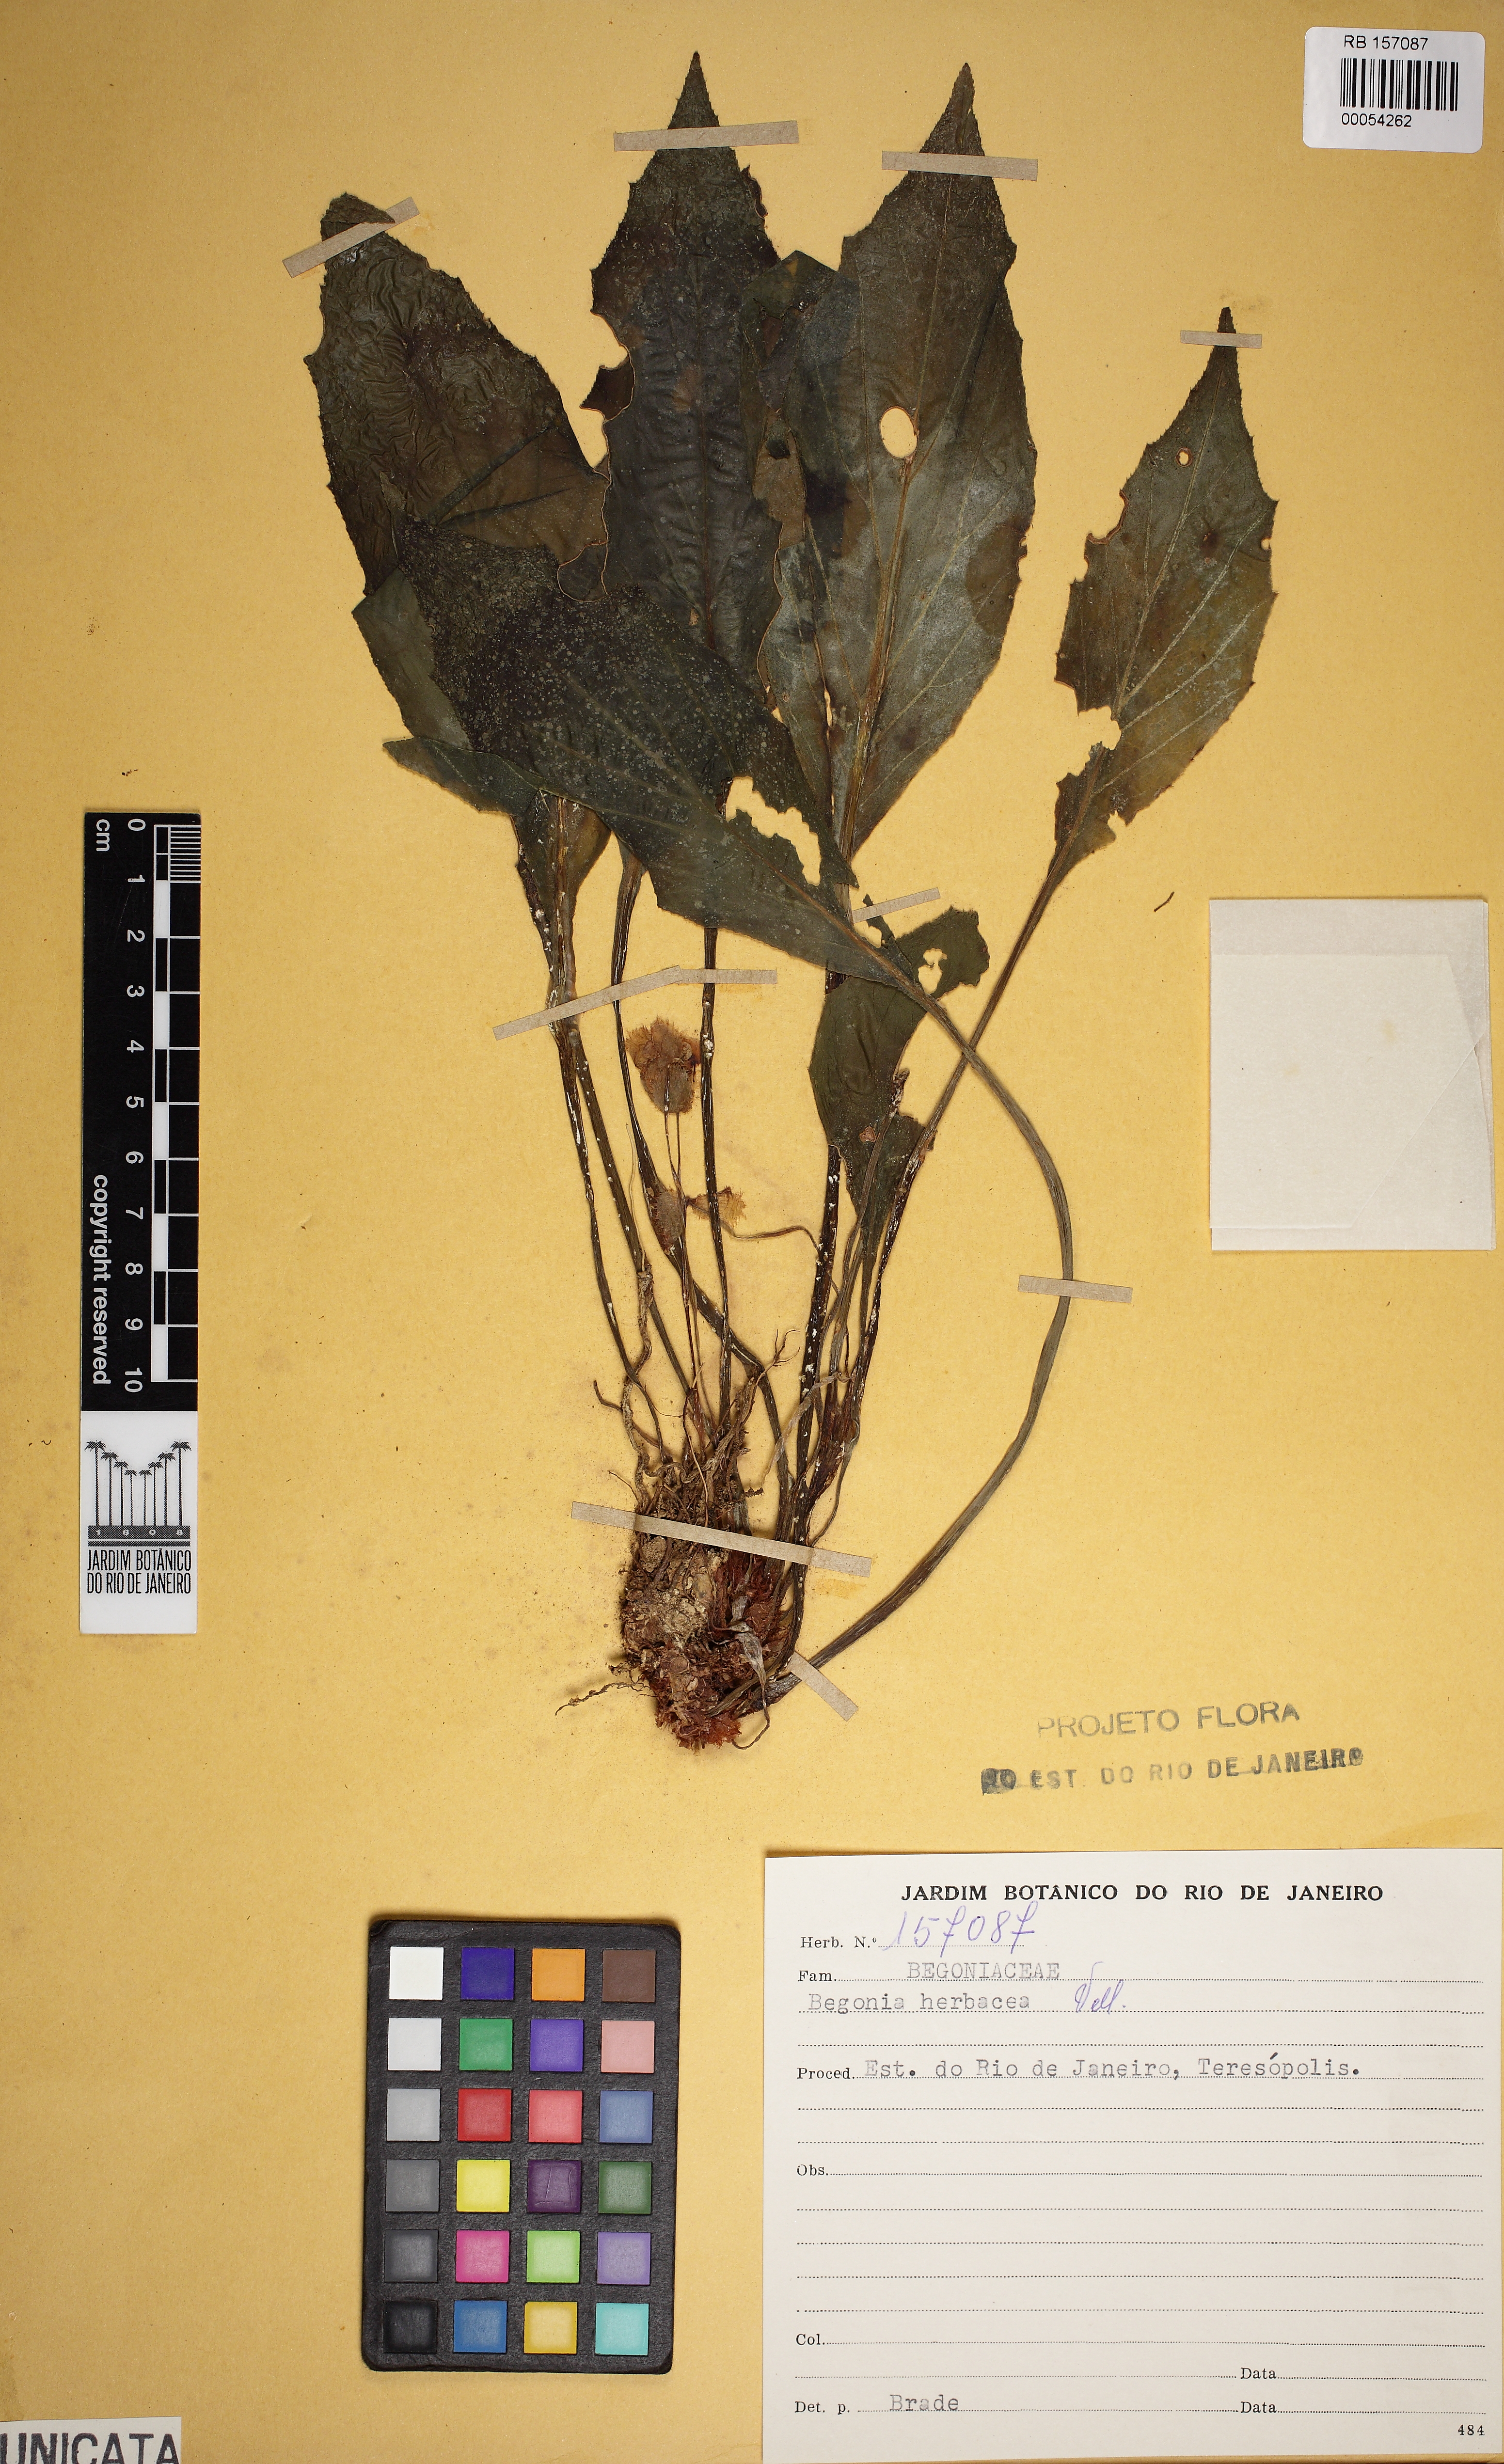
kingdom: Plantae
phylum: Tracheophyta
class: Magnoliopsida
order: Cucurbitales
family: Begoniaceae
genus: Begonia
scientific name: Begonia herbacea
